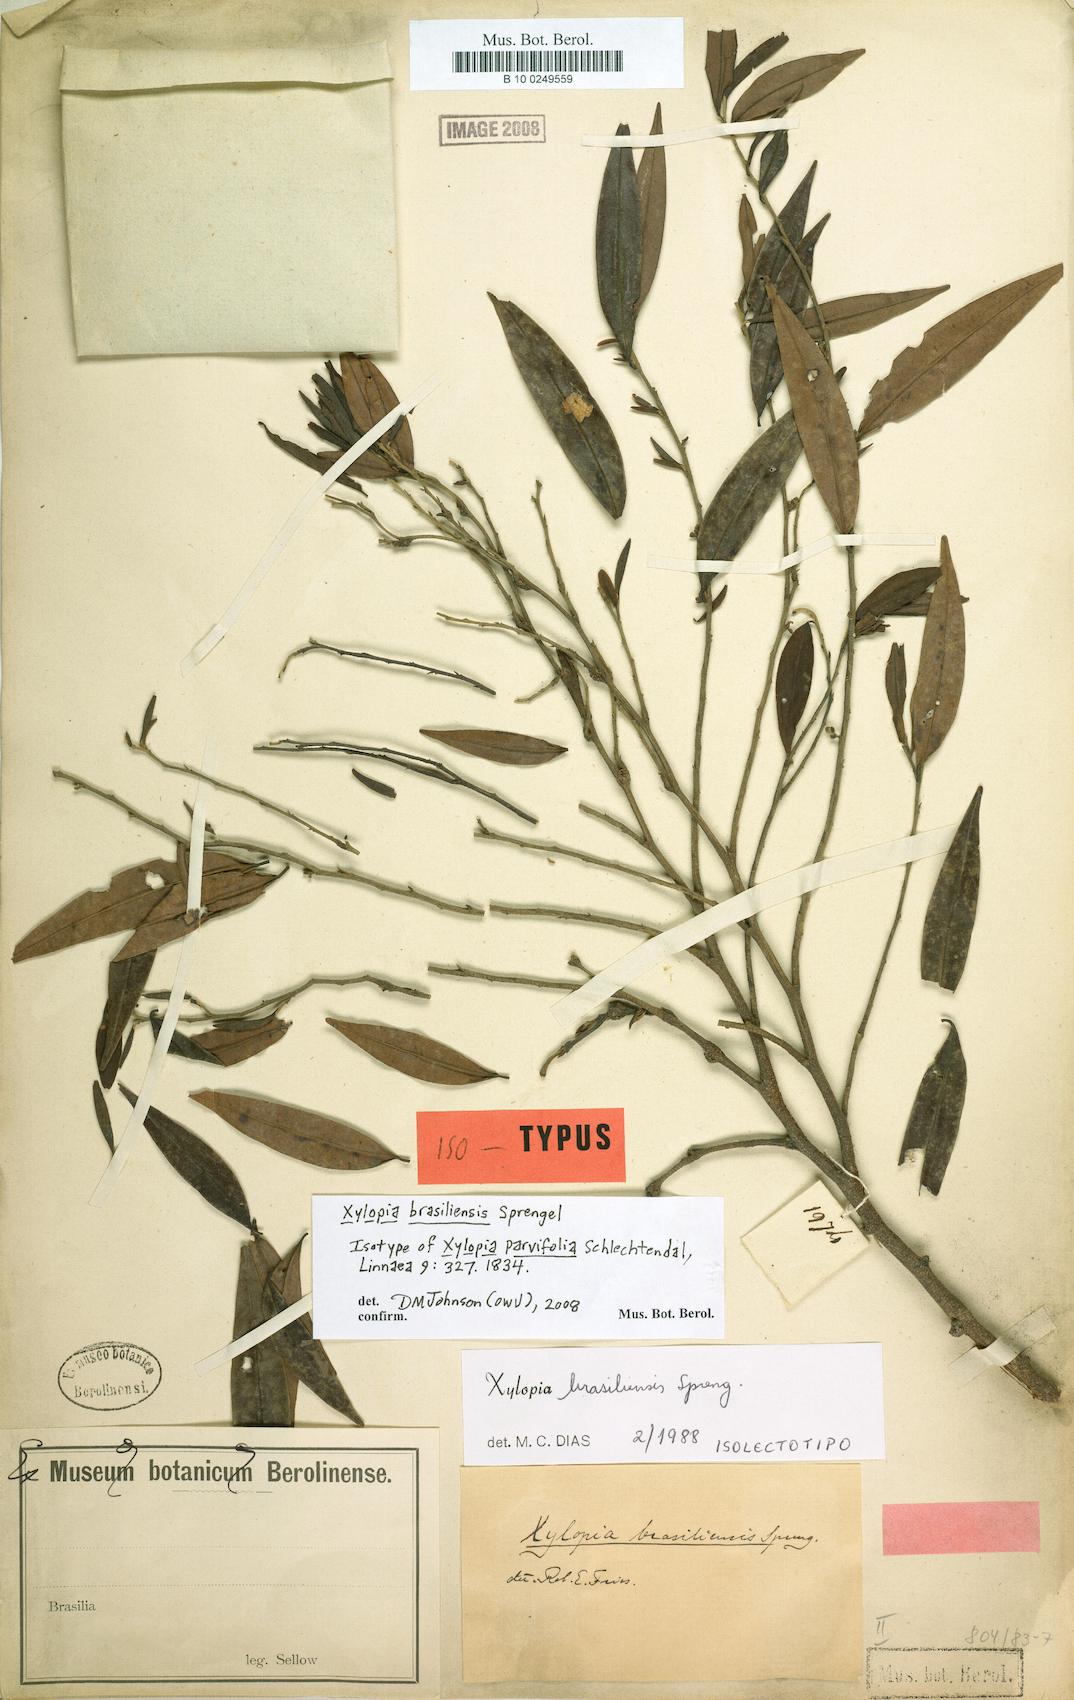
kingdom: Plantae
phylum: Tracheophyta
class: Magnoliopsida
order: Magnoliales
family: Annonaceae
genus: Xylopia
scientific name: Xylopia brasiliensis
